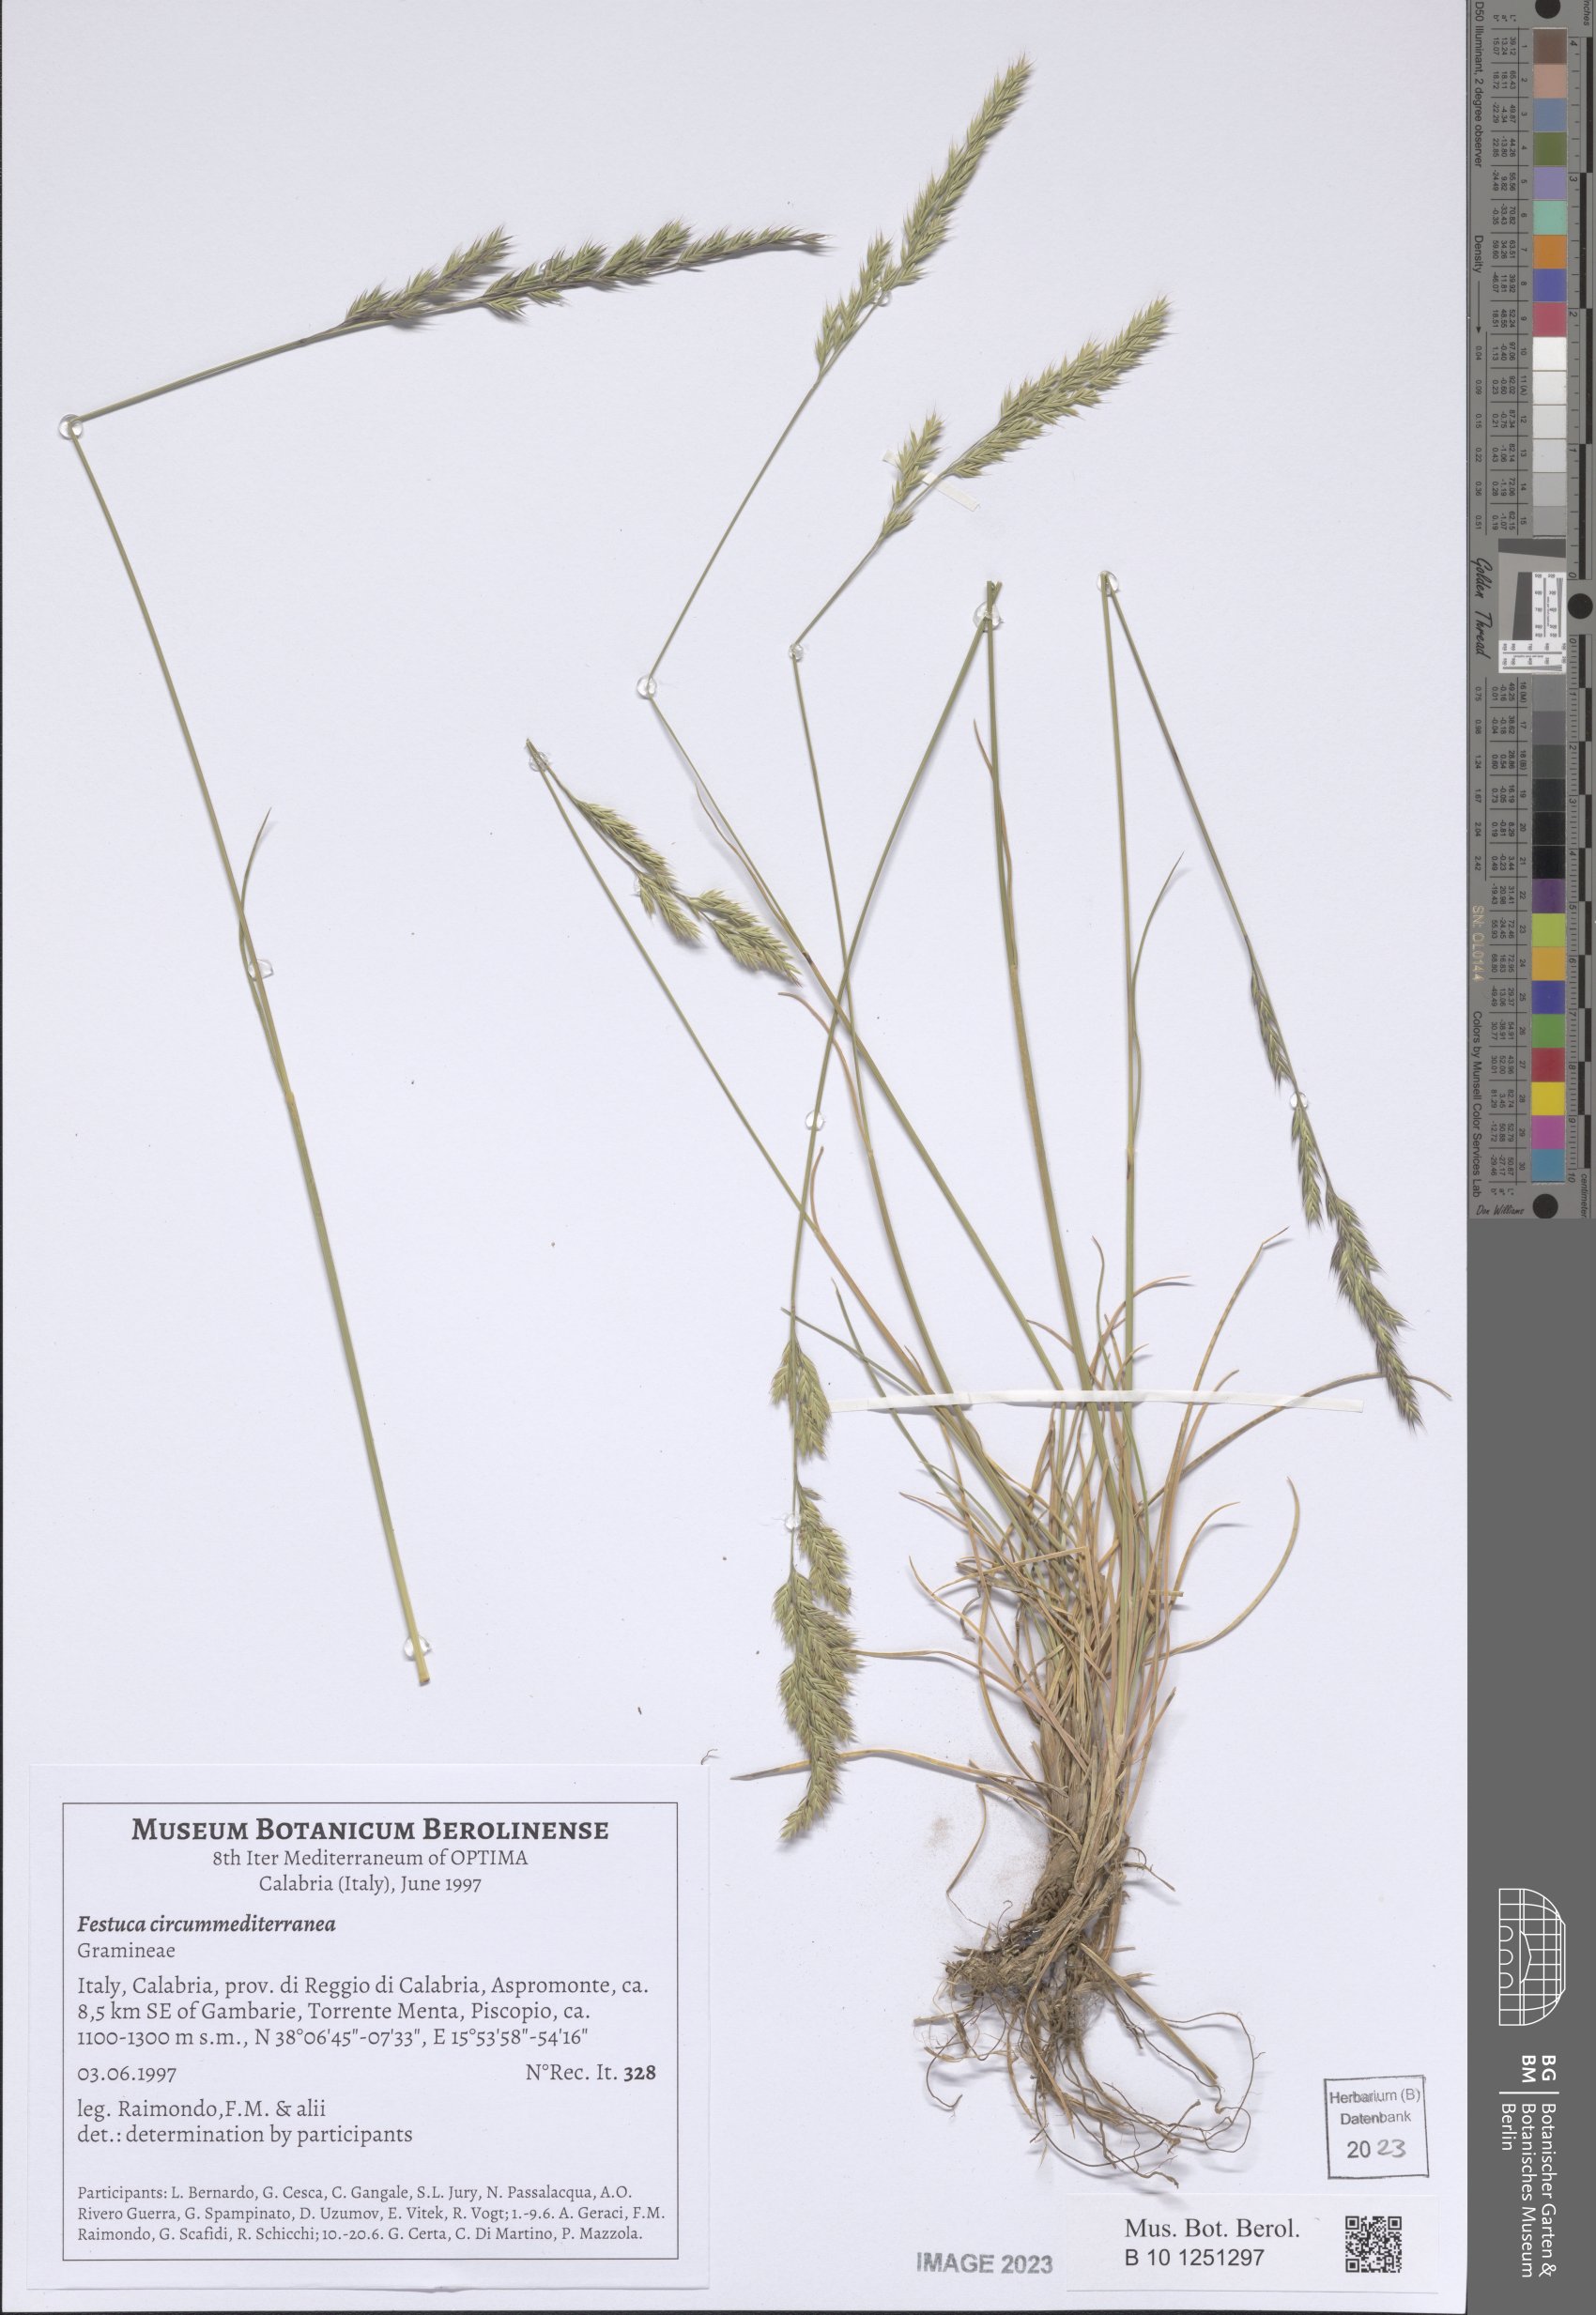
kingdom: Plantae
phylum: Tracheophyta
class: Liliopsida
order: Poales
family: Poaceae
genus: Festuca
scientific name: Festuca circummediterranea
